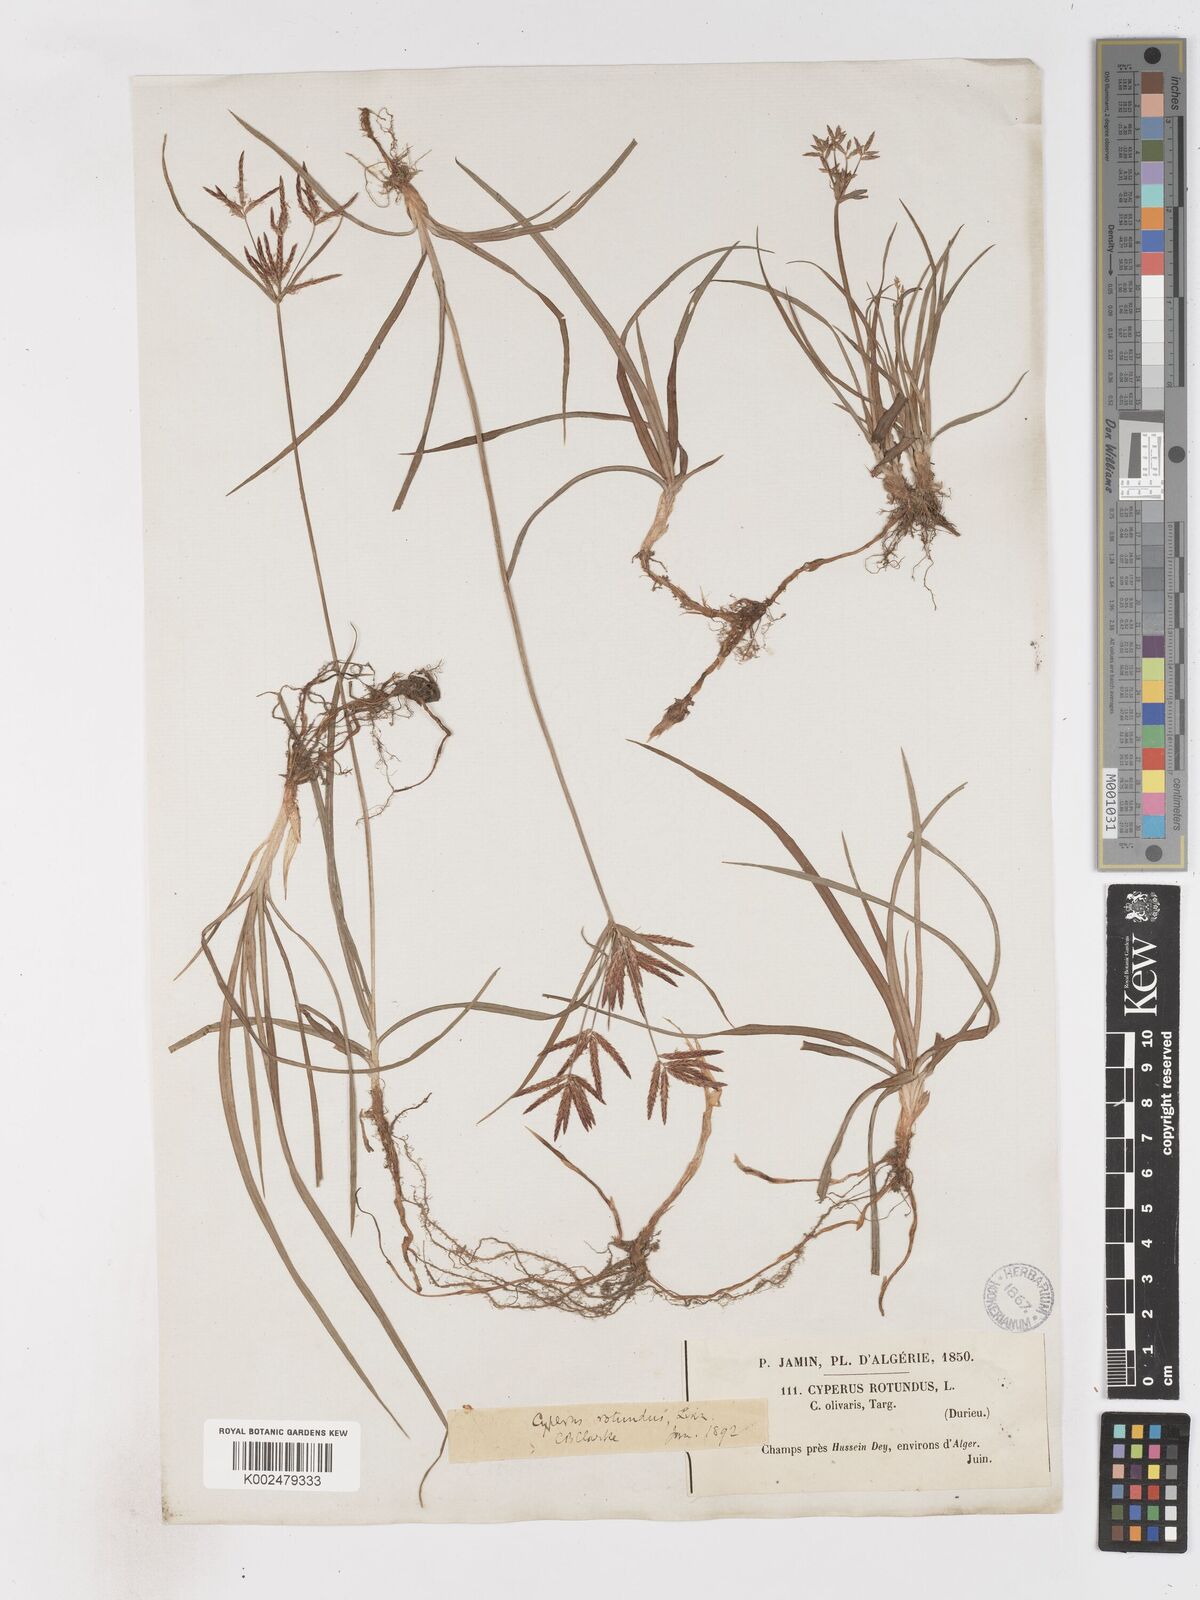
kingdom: Plantae
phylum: Tracheophyta
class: Liliopsida
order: Poales
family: Cyperaceae
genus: Cyperus
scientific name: Cyperus rotundus
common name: Nutgrass
